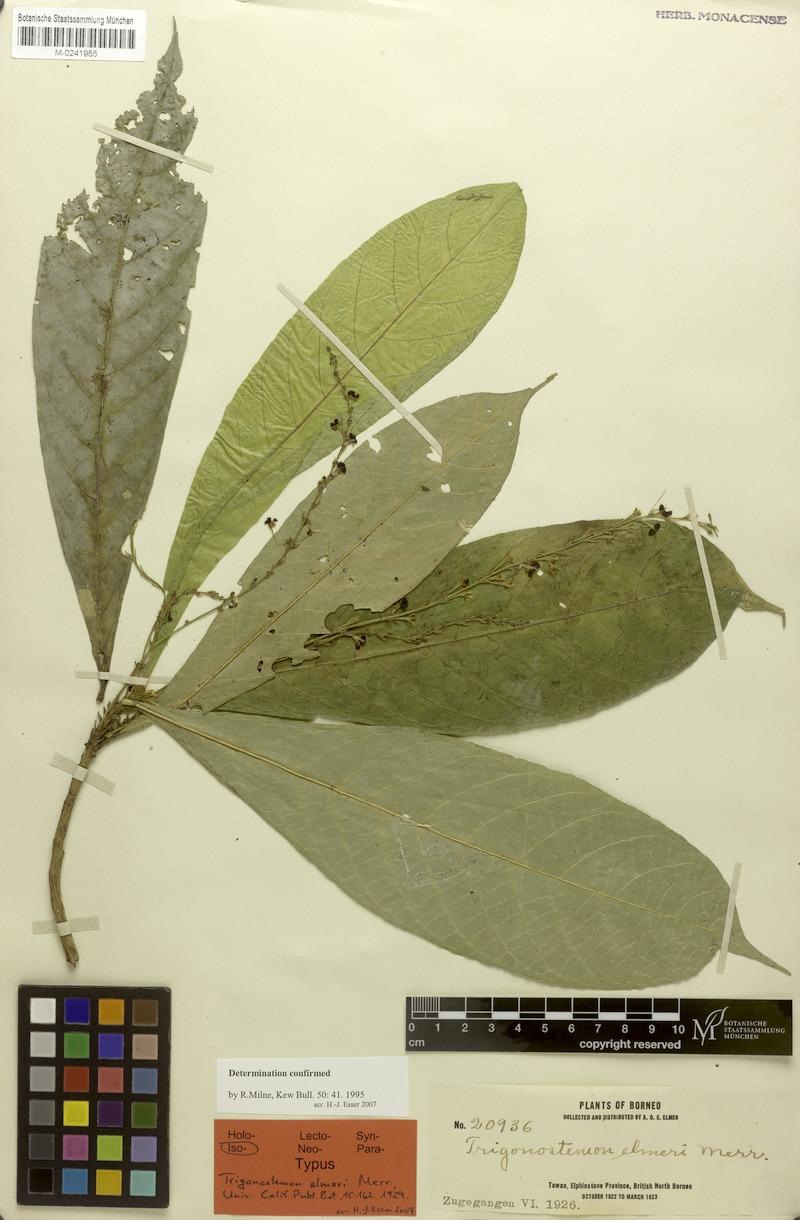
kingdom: Plantae
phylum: Tracheophyta
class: Magnoliopsida
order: Malpighiales
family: Euphorbiaceae
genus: Trigonostemon
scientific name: Trigonostemon longifolius
